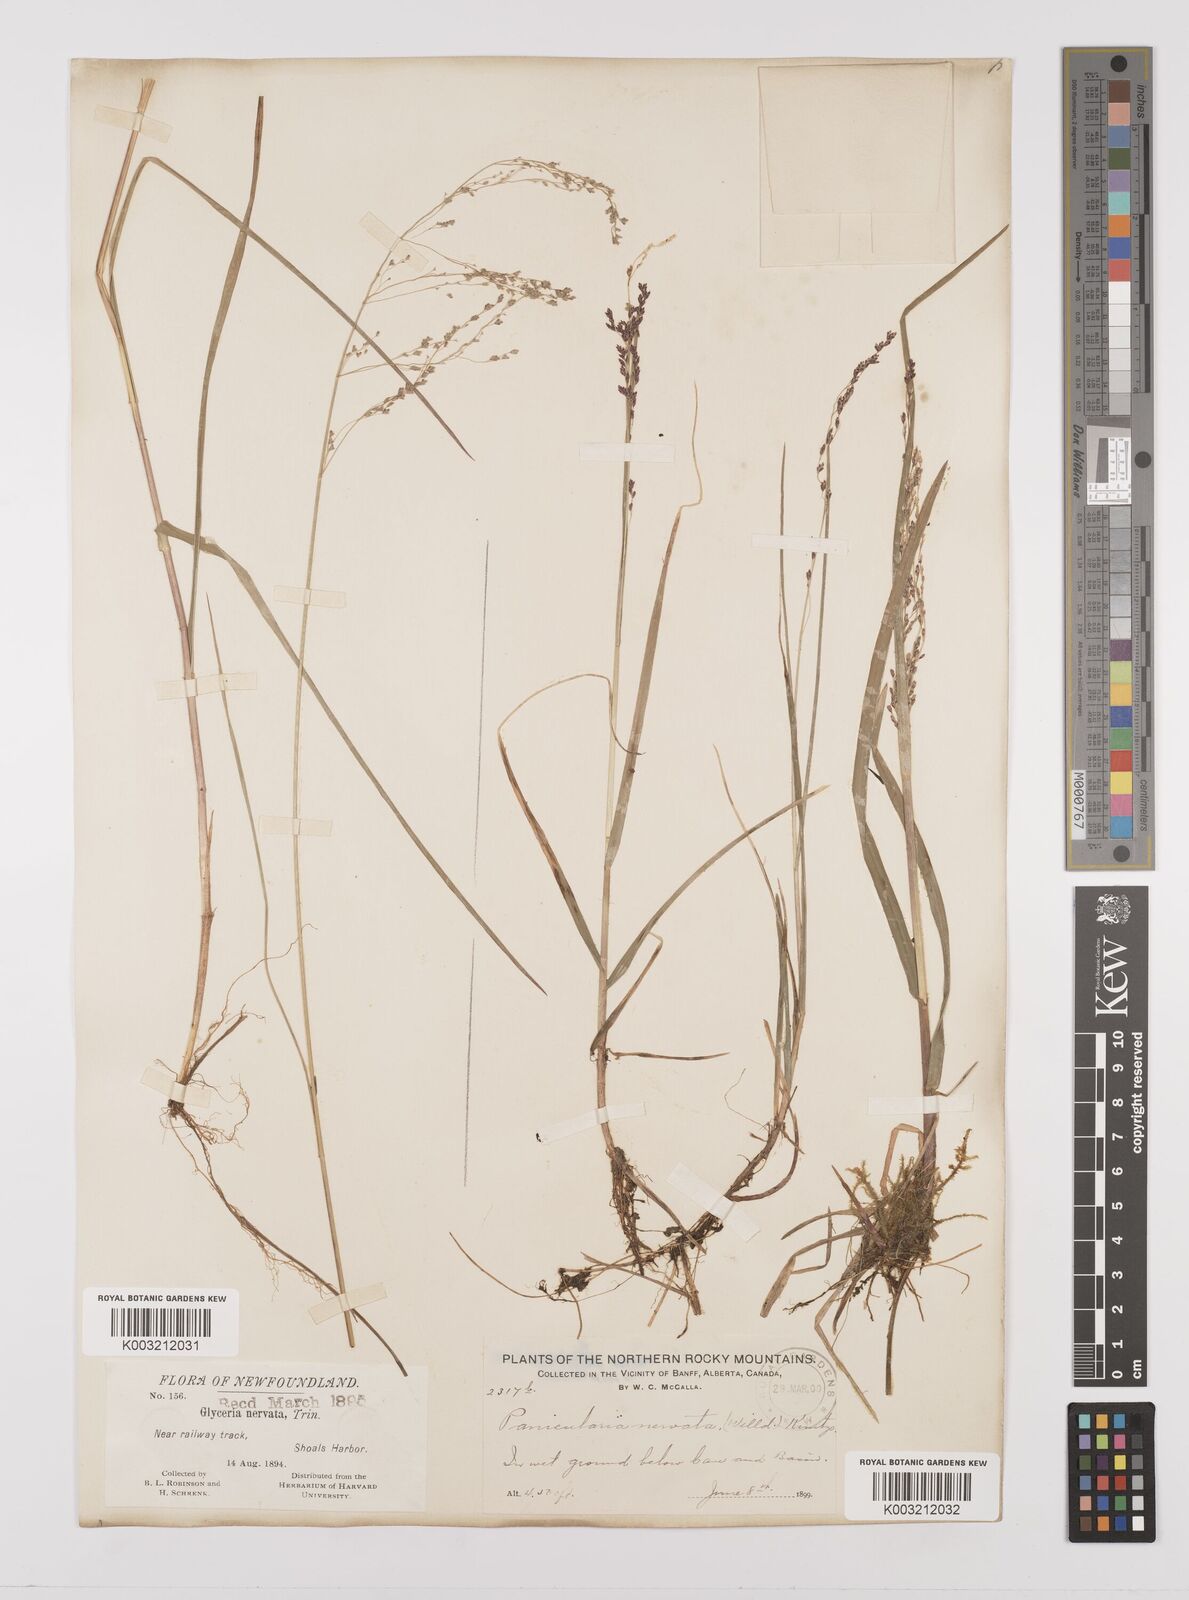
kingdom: Plantae
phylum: Tracheophyta
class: Liliopsida
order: Poales
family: Poaceae
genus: Glyceria
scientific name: Glyceria striata
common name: Fowl manna grass
